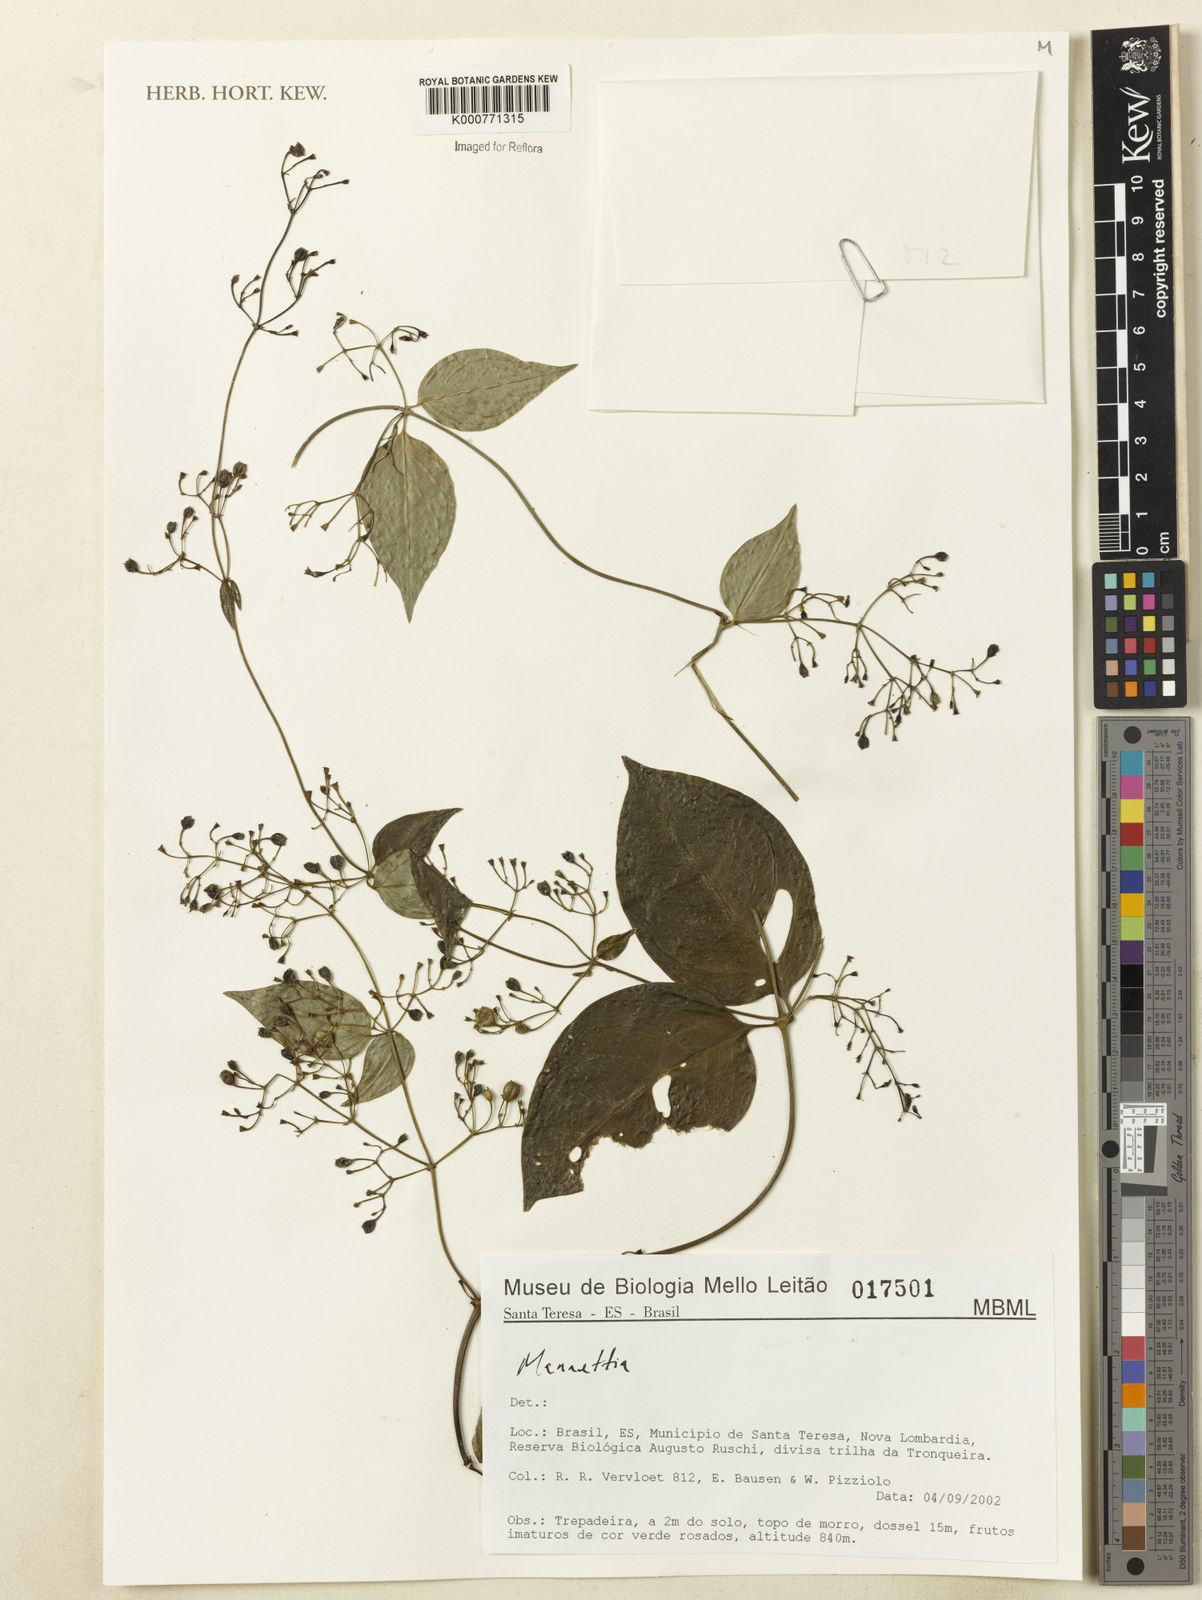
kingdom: Plantae
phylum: Tracheophyta
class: Magnoliopsida
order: Gentianales
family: Rubiaceae
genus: Manettia
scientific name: Manettia
